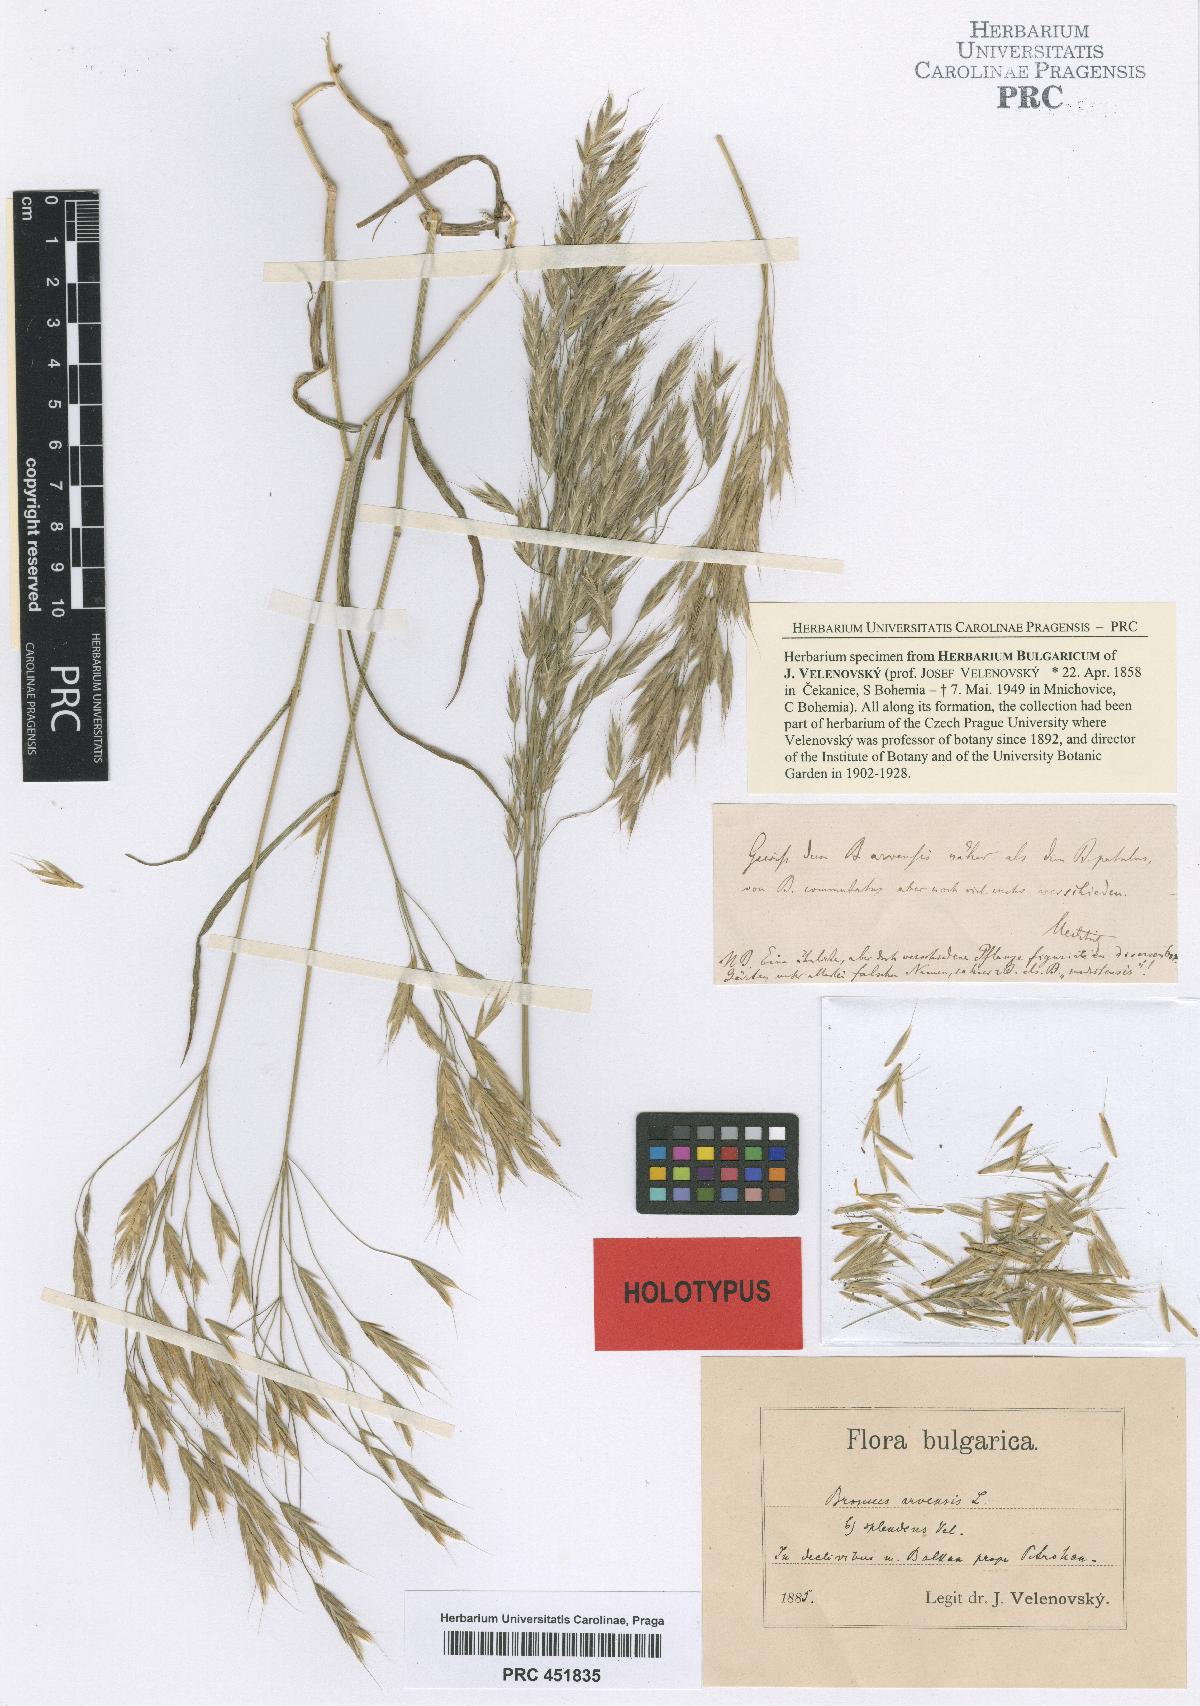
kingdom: Plantae
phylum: Tracheophyta
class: Liliopsida
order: Poales
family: Poaceae
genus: Bromus
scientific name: Bromus arvensis
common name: Field brome
